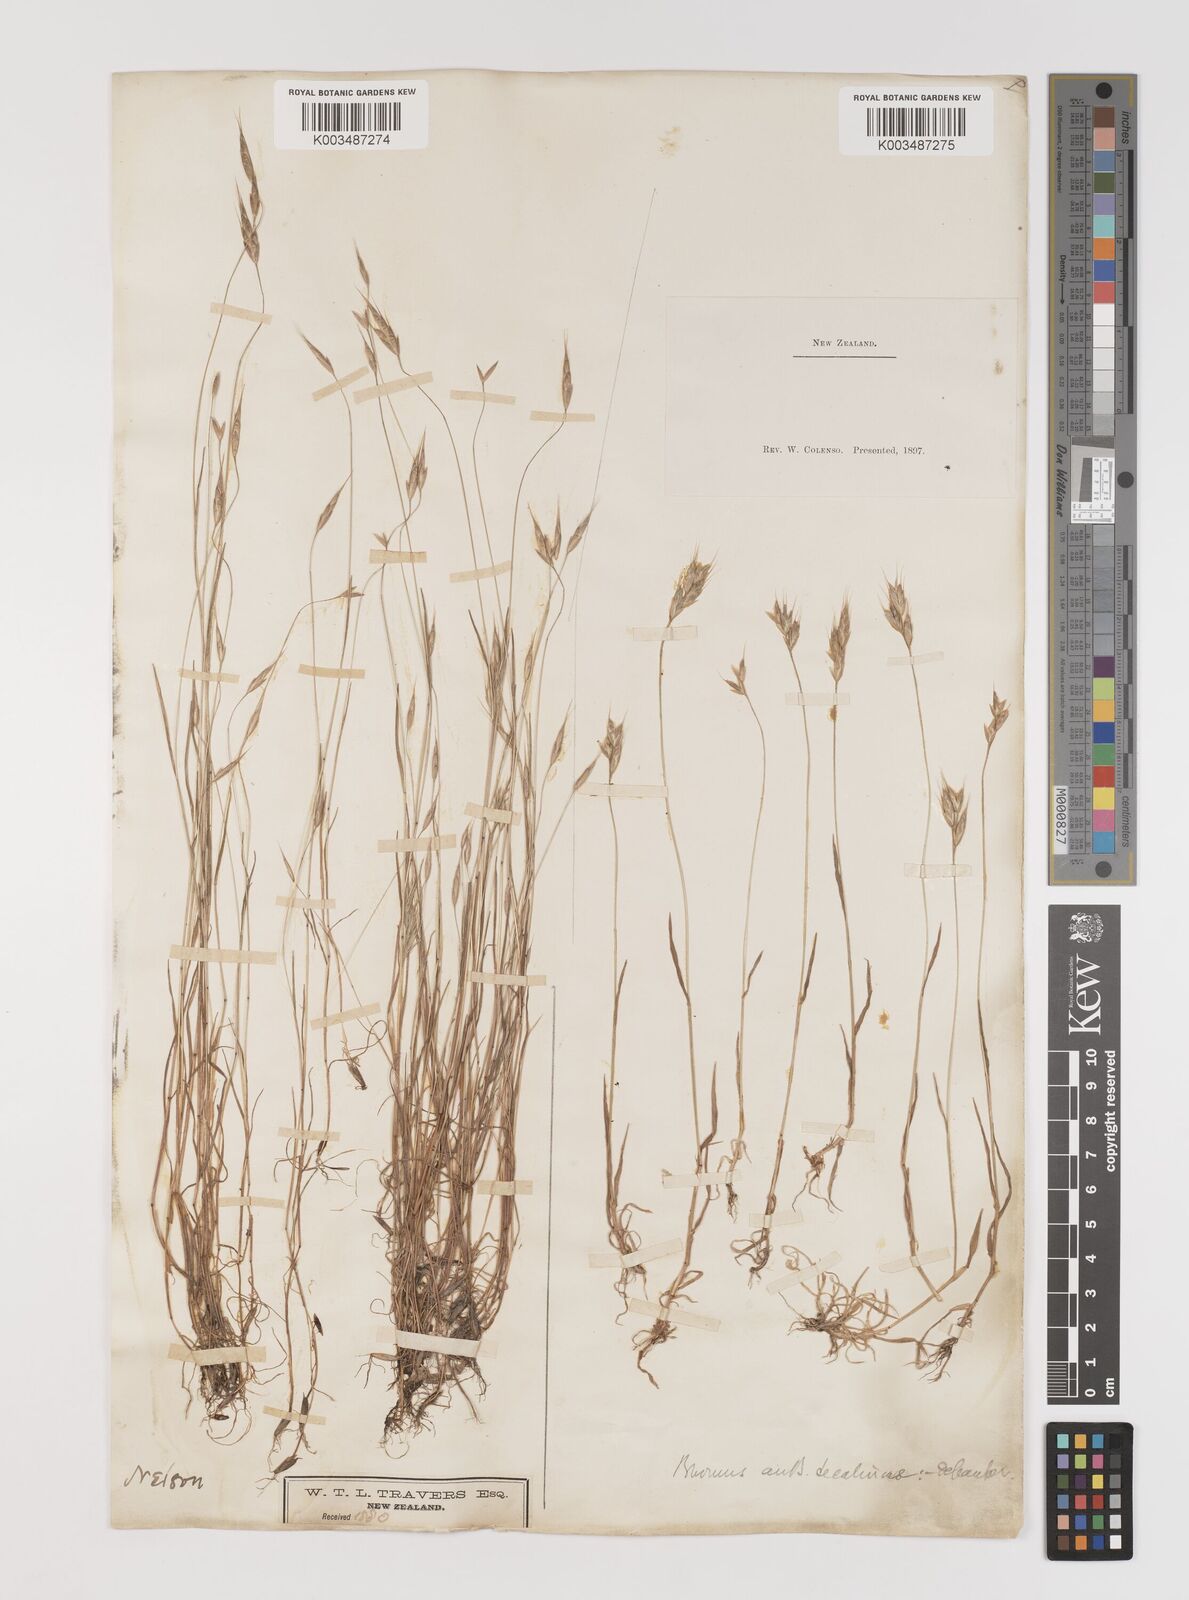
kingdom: Plantae
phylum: Tracheophyta
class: Liliopsida
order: Poales
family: Poaceae
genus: Bromus
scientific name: Bromus secalinus
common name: Rye brome
